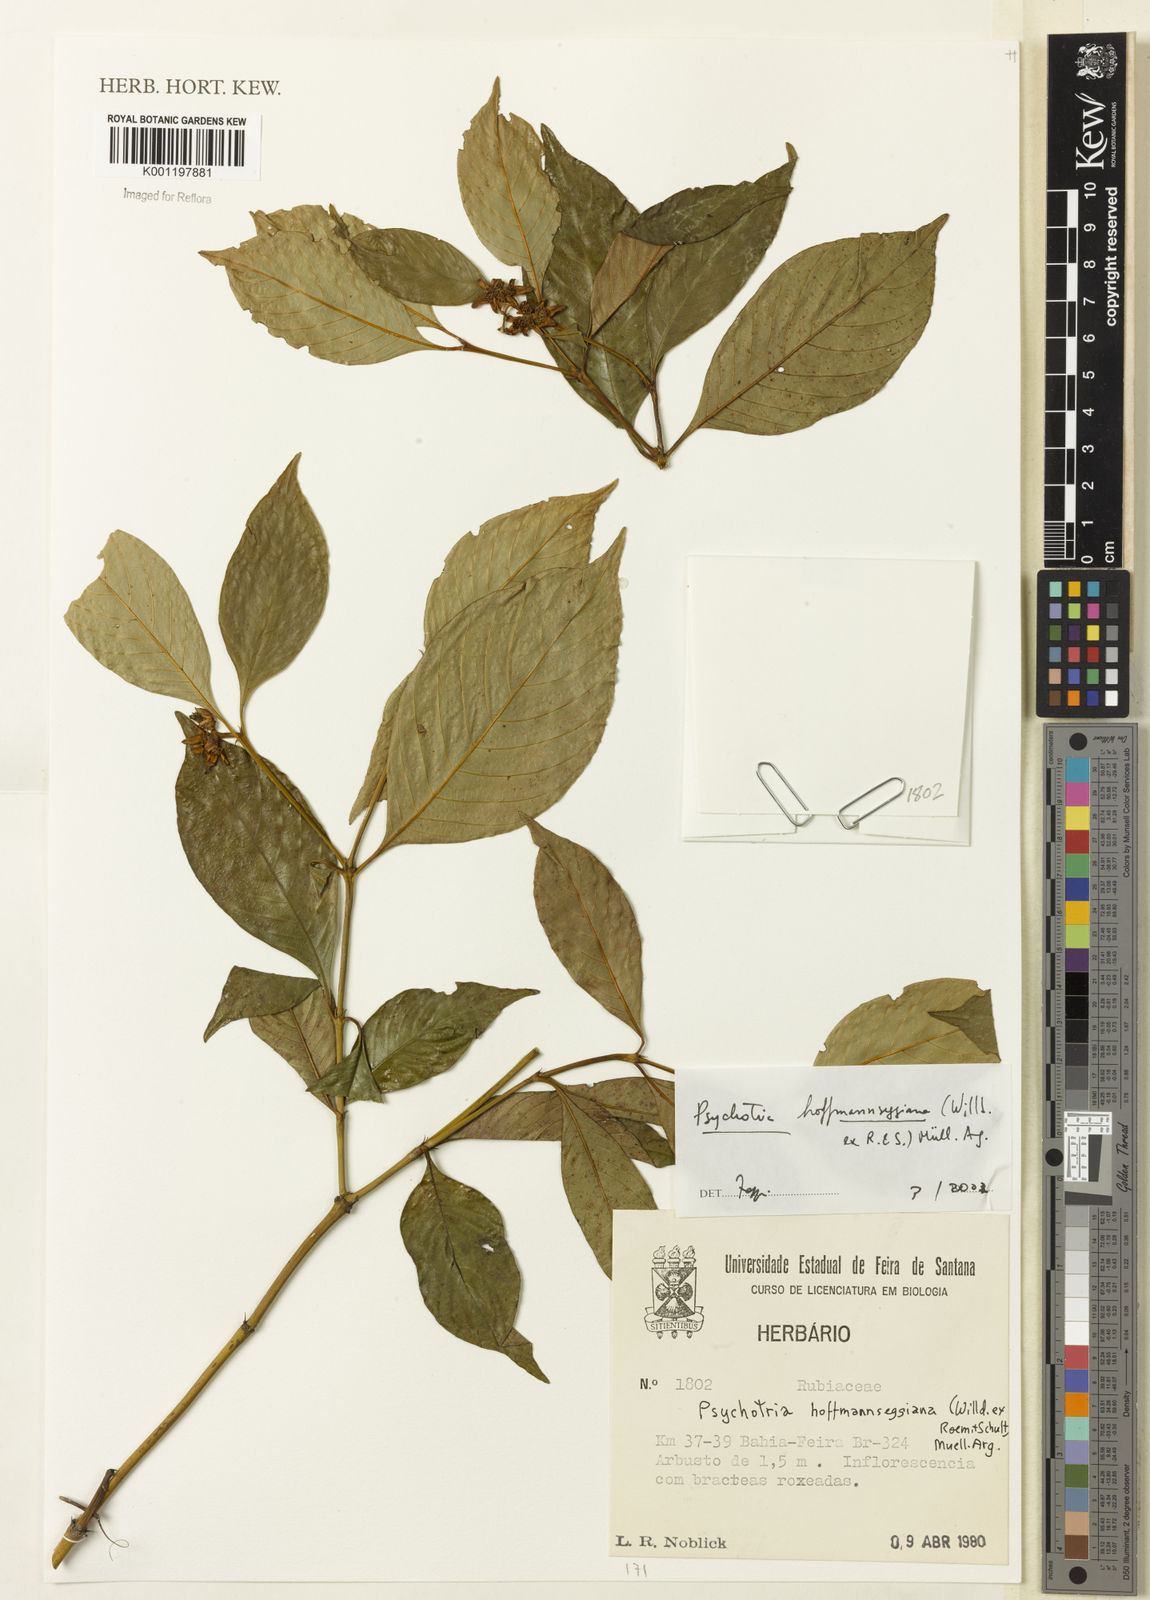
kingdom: Plantae
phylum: Tracheophyta
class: Magnoliopsida
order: Gentianales
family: Rubiaceae
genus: Psychotria
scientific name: Psychotria
